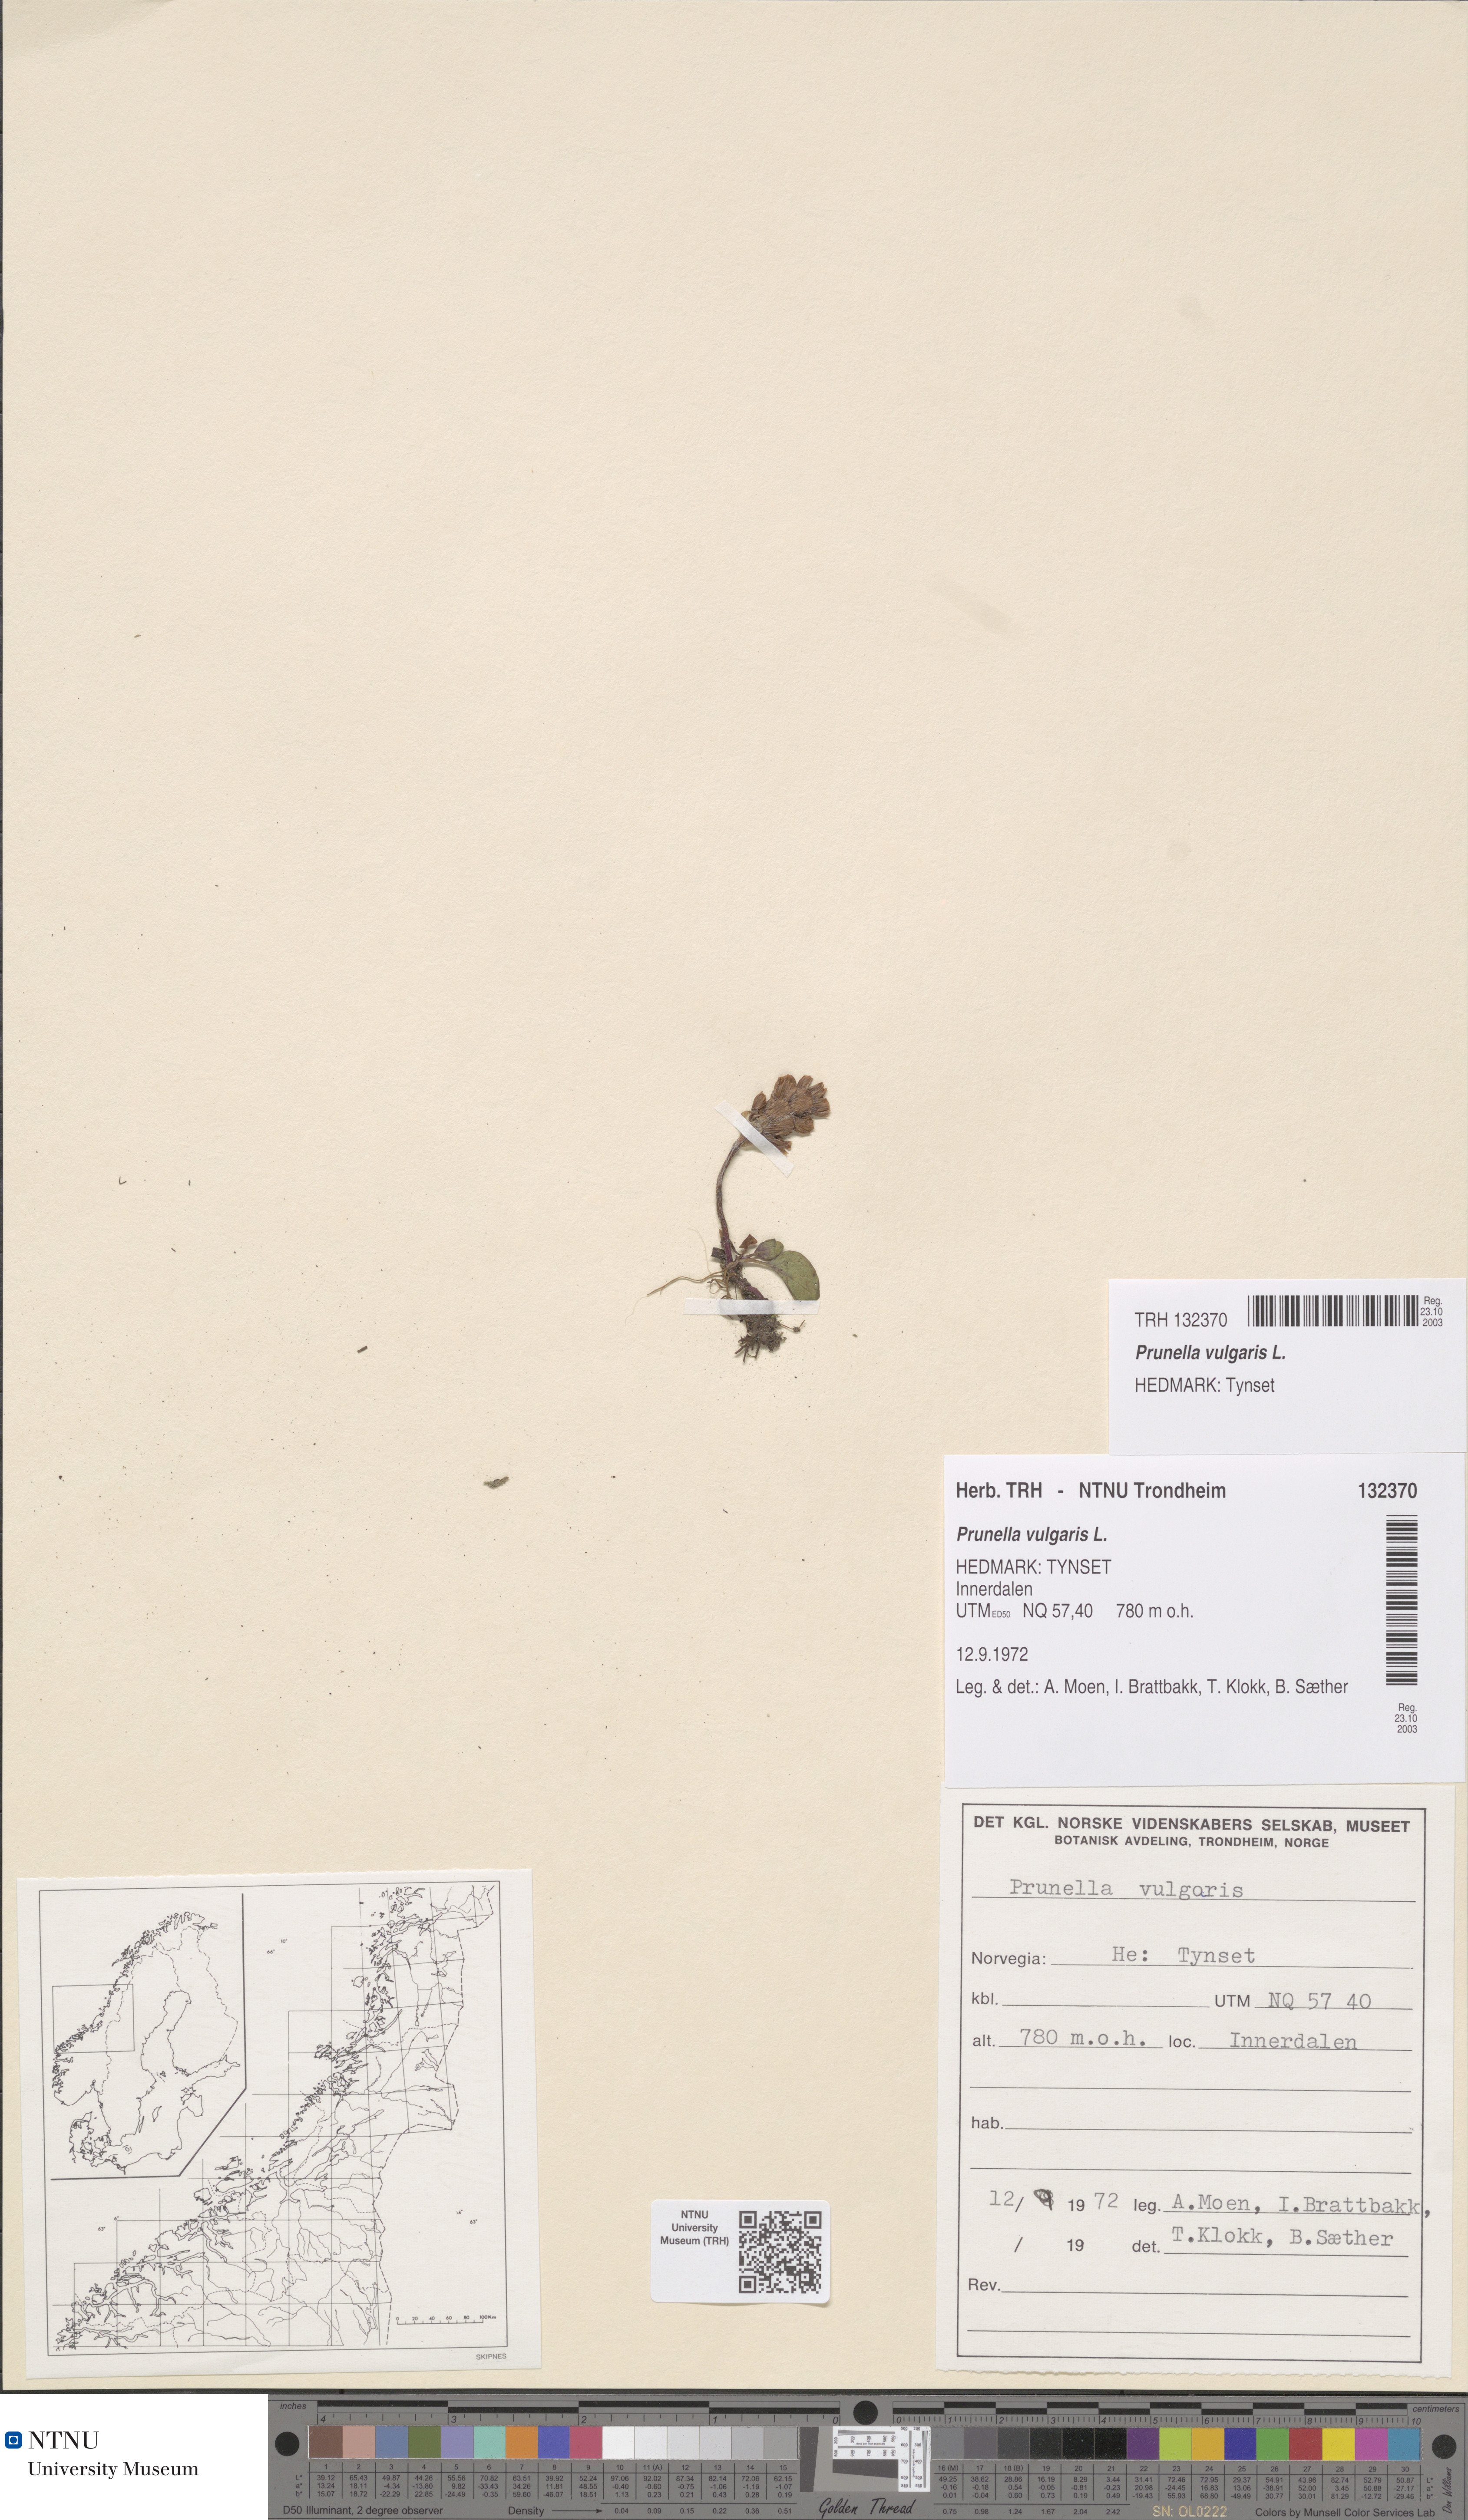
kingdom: Plantae
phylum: Tracheophyta
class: Magnoliopsida
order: Lamiales
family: Lamiaceae
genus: Prunella
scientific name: Prunella vulgaris
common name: Heal-all
